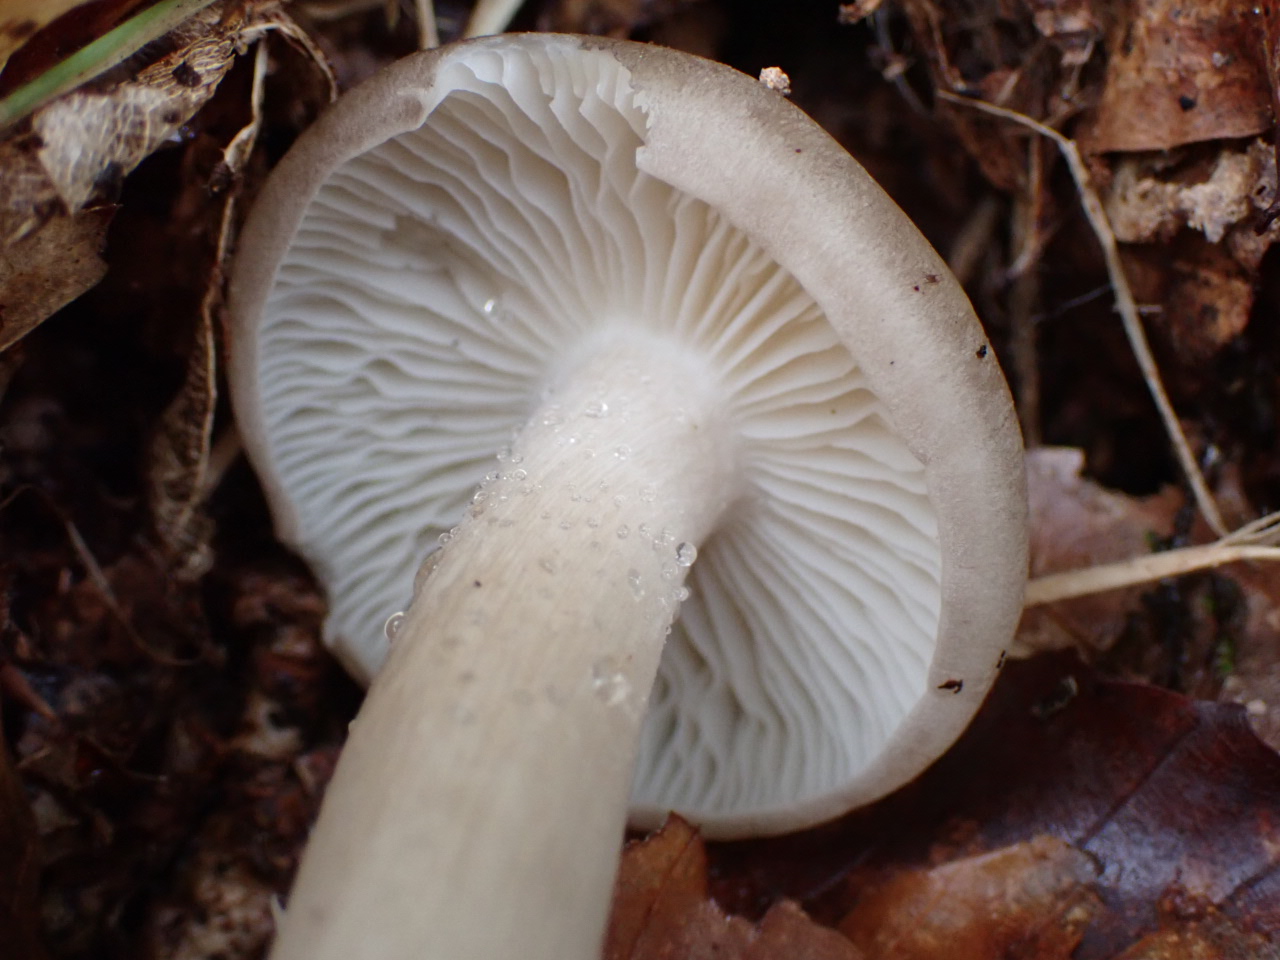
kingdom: Fungi
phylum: Basidiomycota
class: Agaricomycetes
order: Agaricales
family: Tricholomataceae
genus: Megacollybia
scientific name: Megacollybia platyphylla
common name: bredbladet væbnerhat
